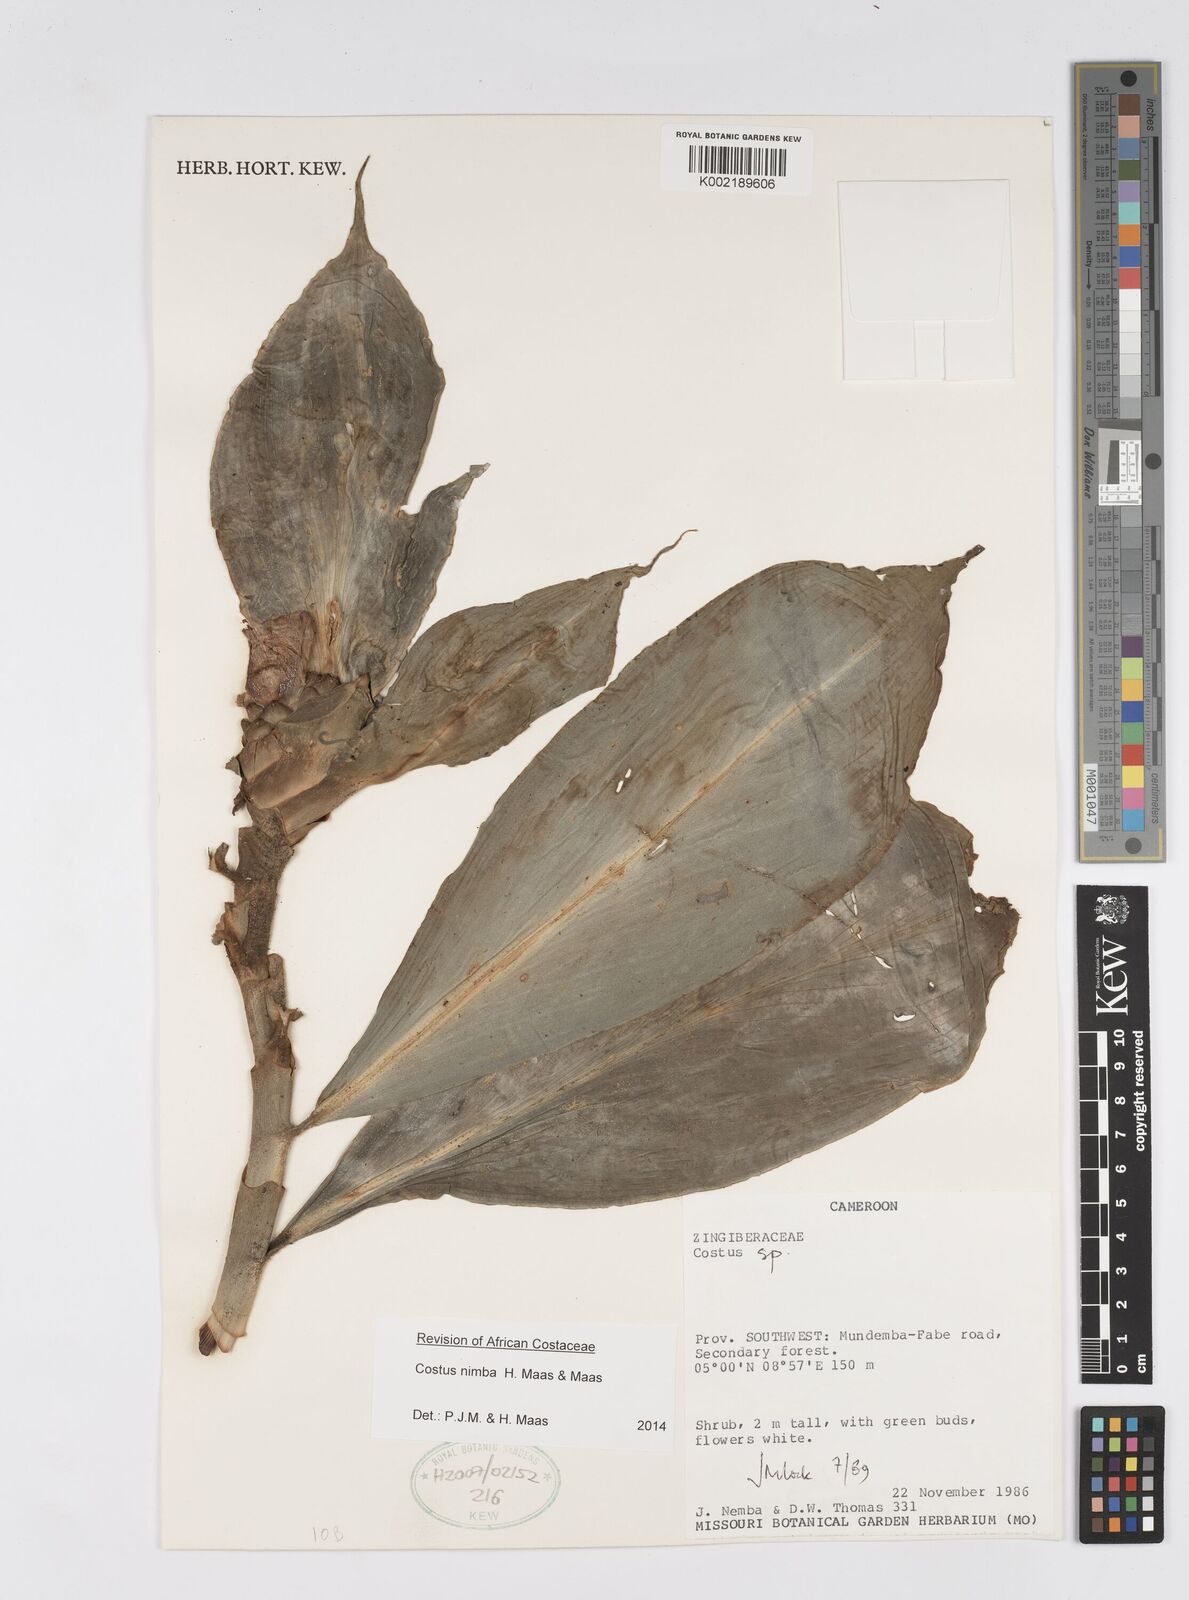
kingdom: Plantae
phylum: Tracheophyta
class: Liliopsida
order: Zingiberales
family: Costaceae
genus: Costus
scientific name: Costus nimba
